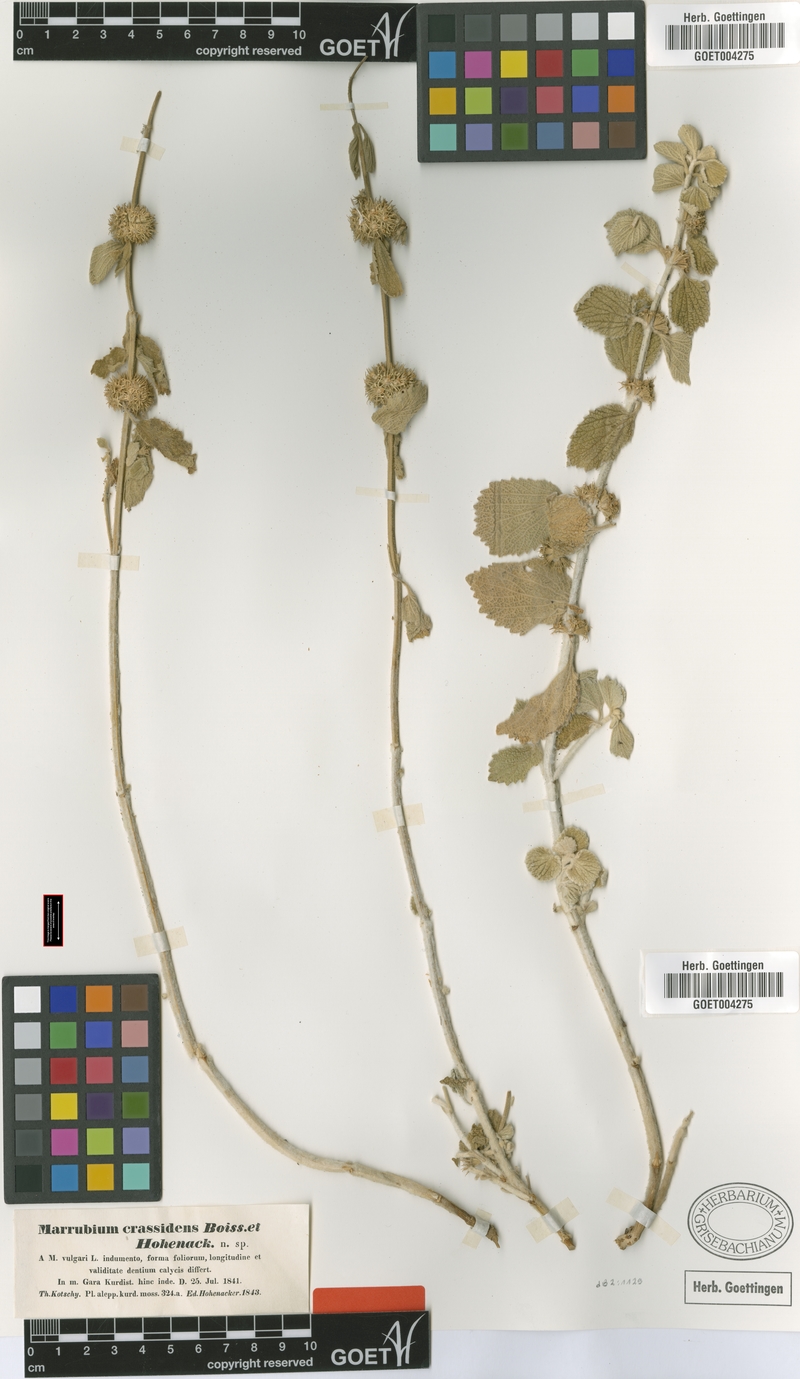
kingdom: Plantae
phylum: Tracheophyta
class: Magnoliopsida
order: Lamiales
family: Lamiaceae
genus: Marrubium
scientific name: Marrubium crassidens
